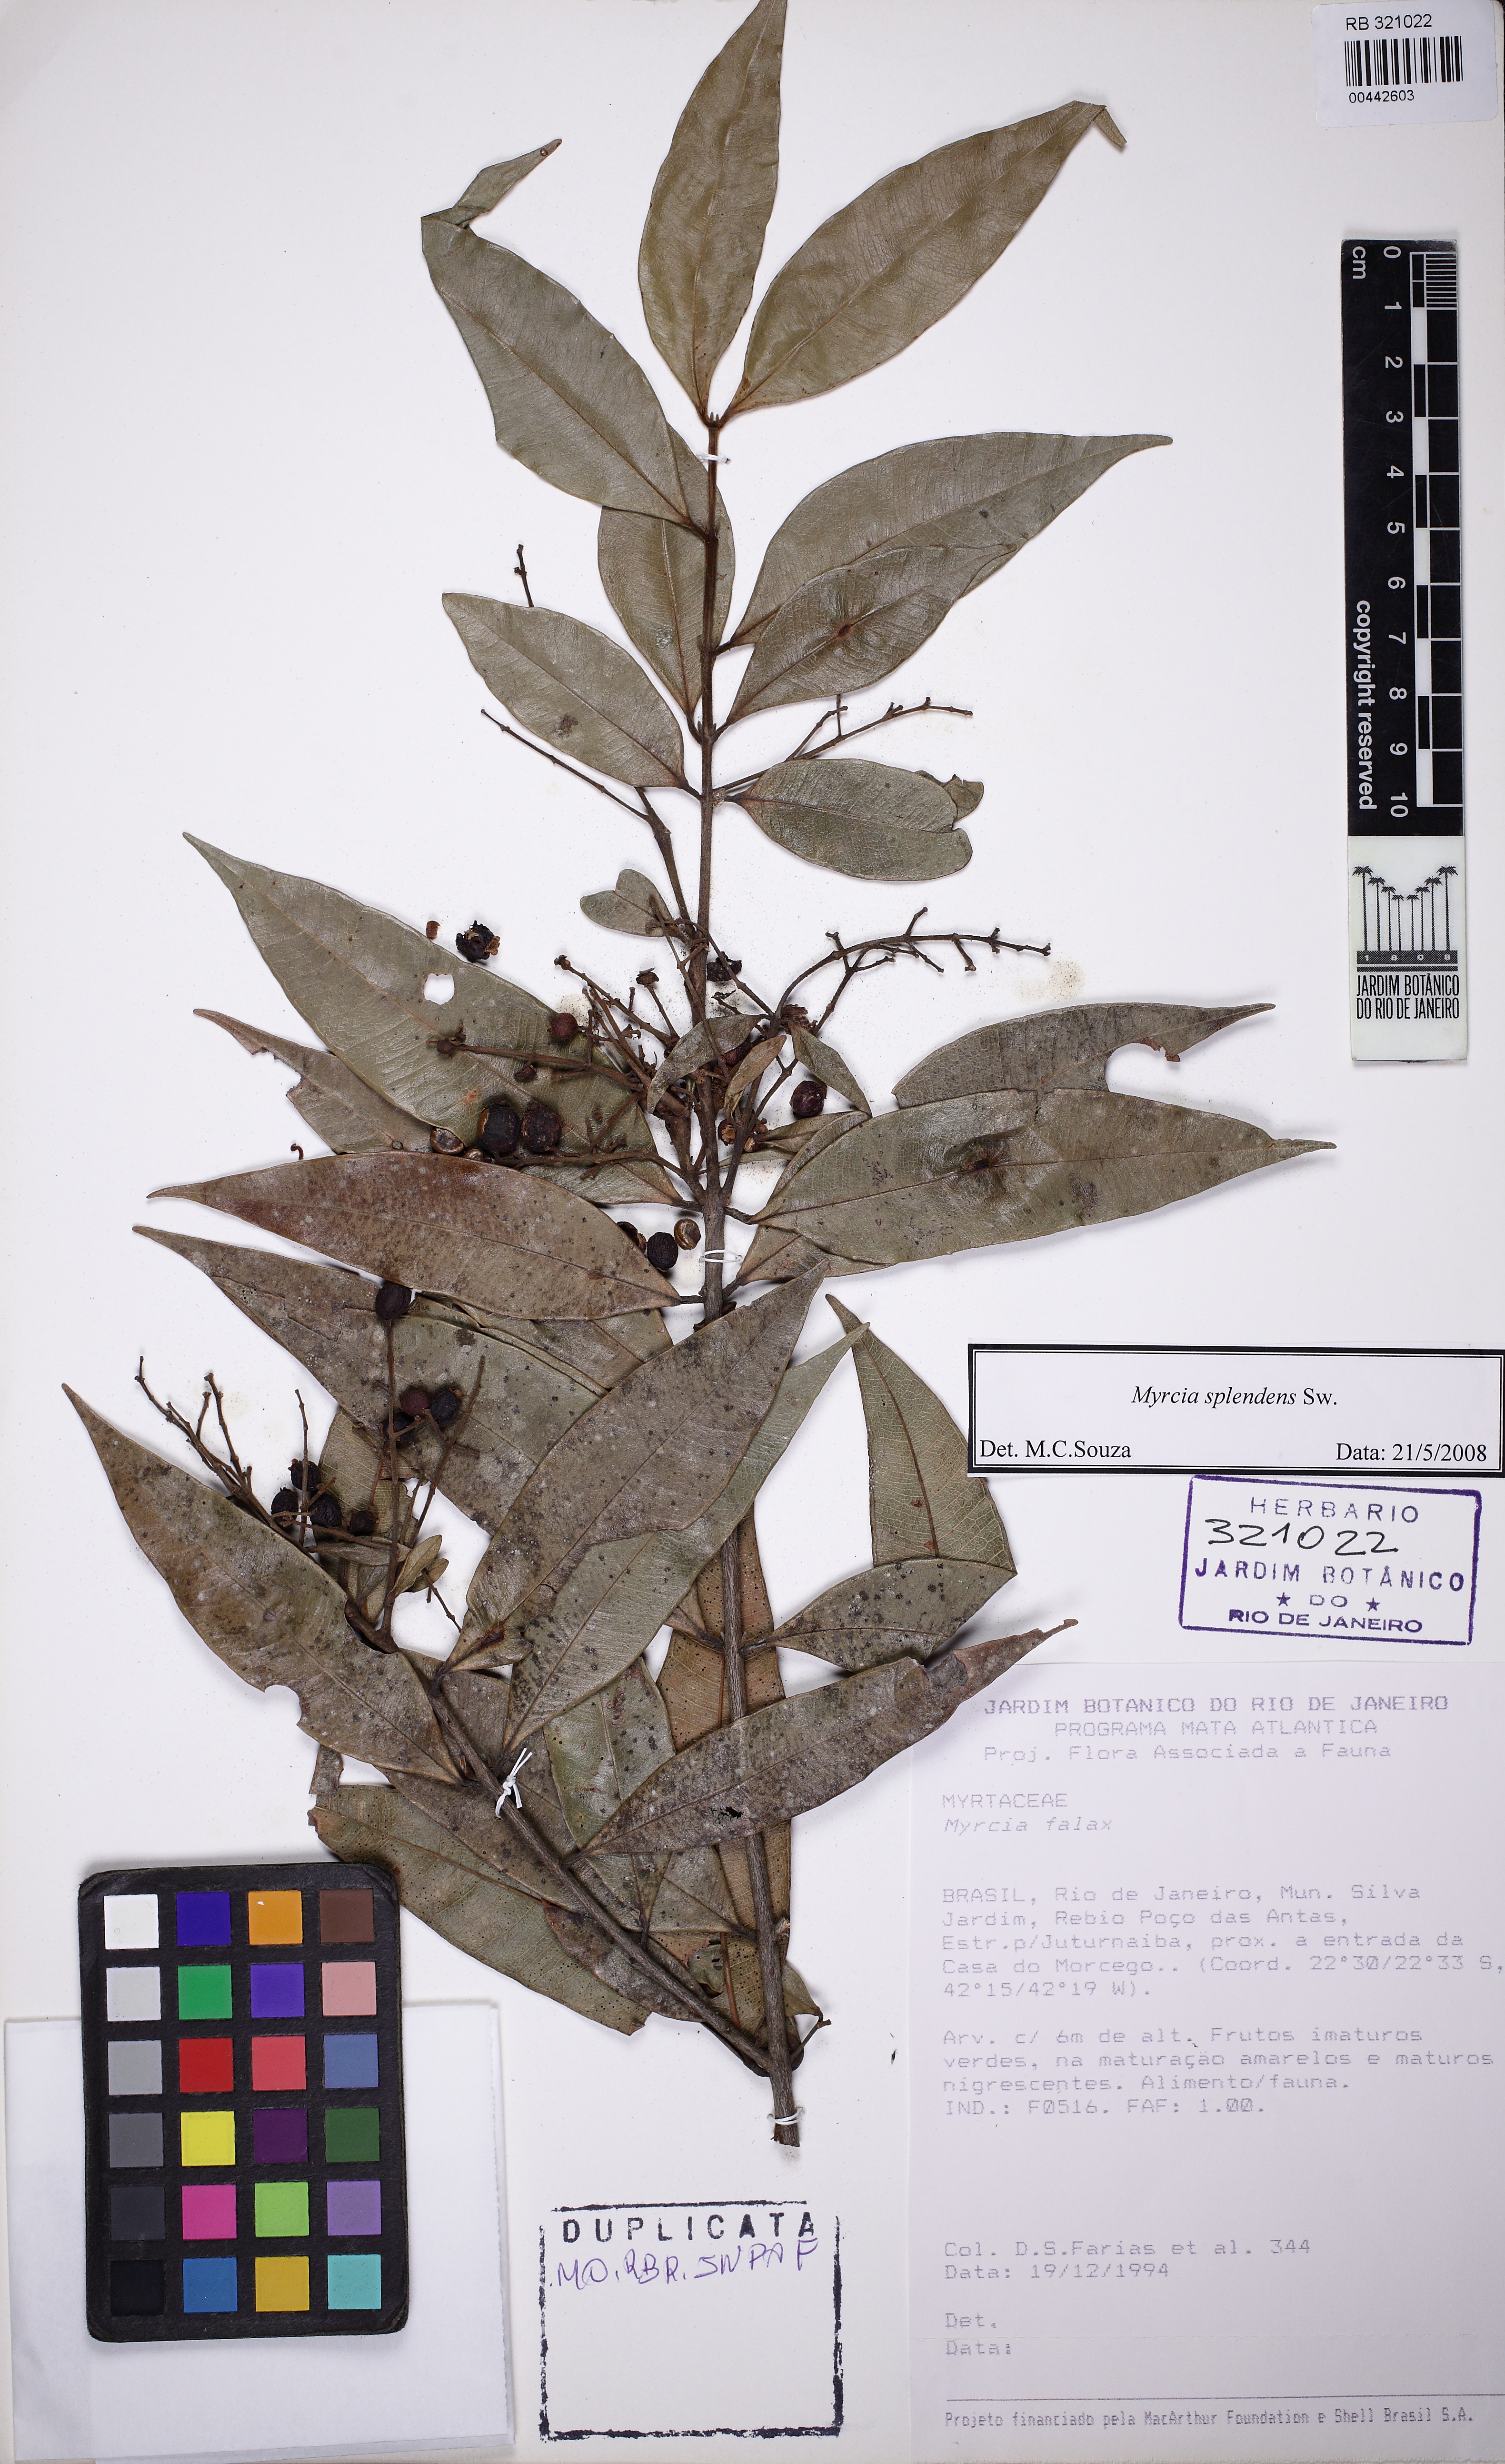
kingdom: Plantae
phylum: Tracheophyta
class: Magnoliopsida
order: Myrtales
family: Myrtaceae
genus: Myrcia
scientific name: Myrcia splendens
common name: Surinam cherry
